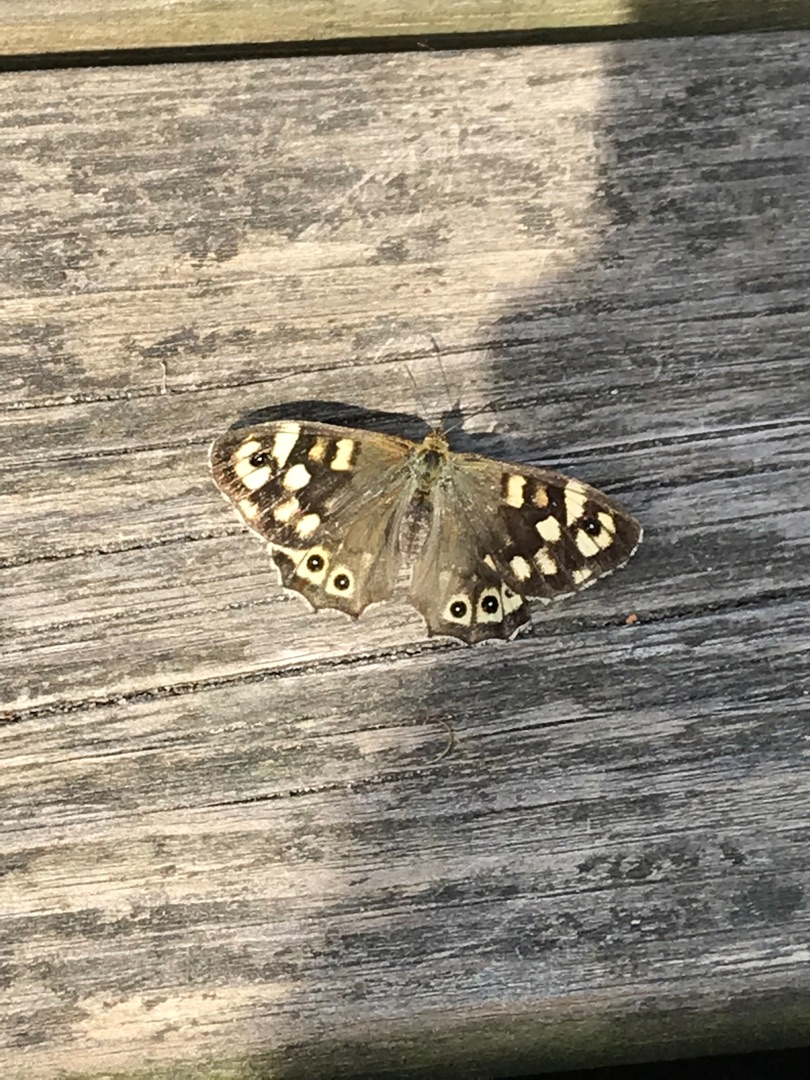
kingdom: Animalia
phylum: Arthropoda
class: Insecta
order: Lepidoptera
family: Nymphalidae
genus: Pararge
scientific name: Pararge aegeria
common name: Skovrandøje
